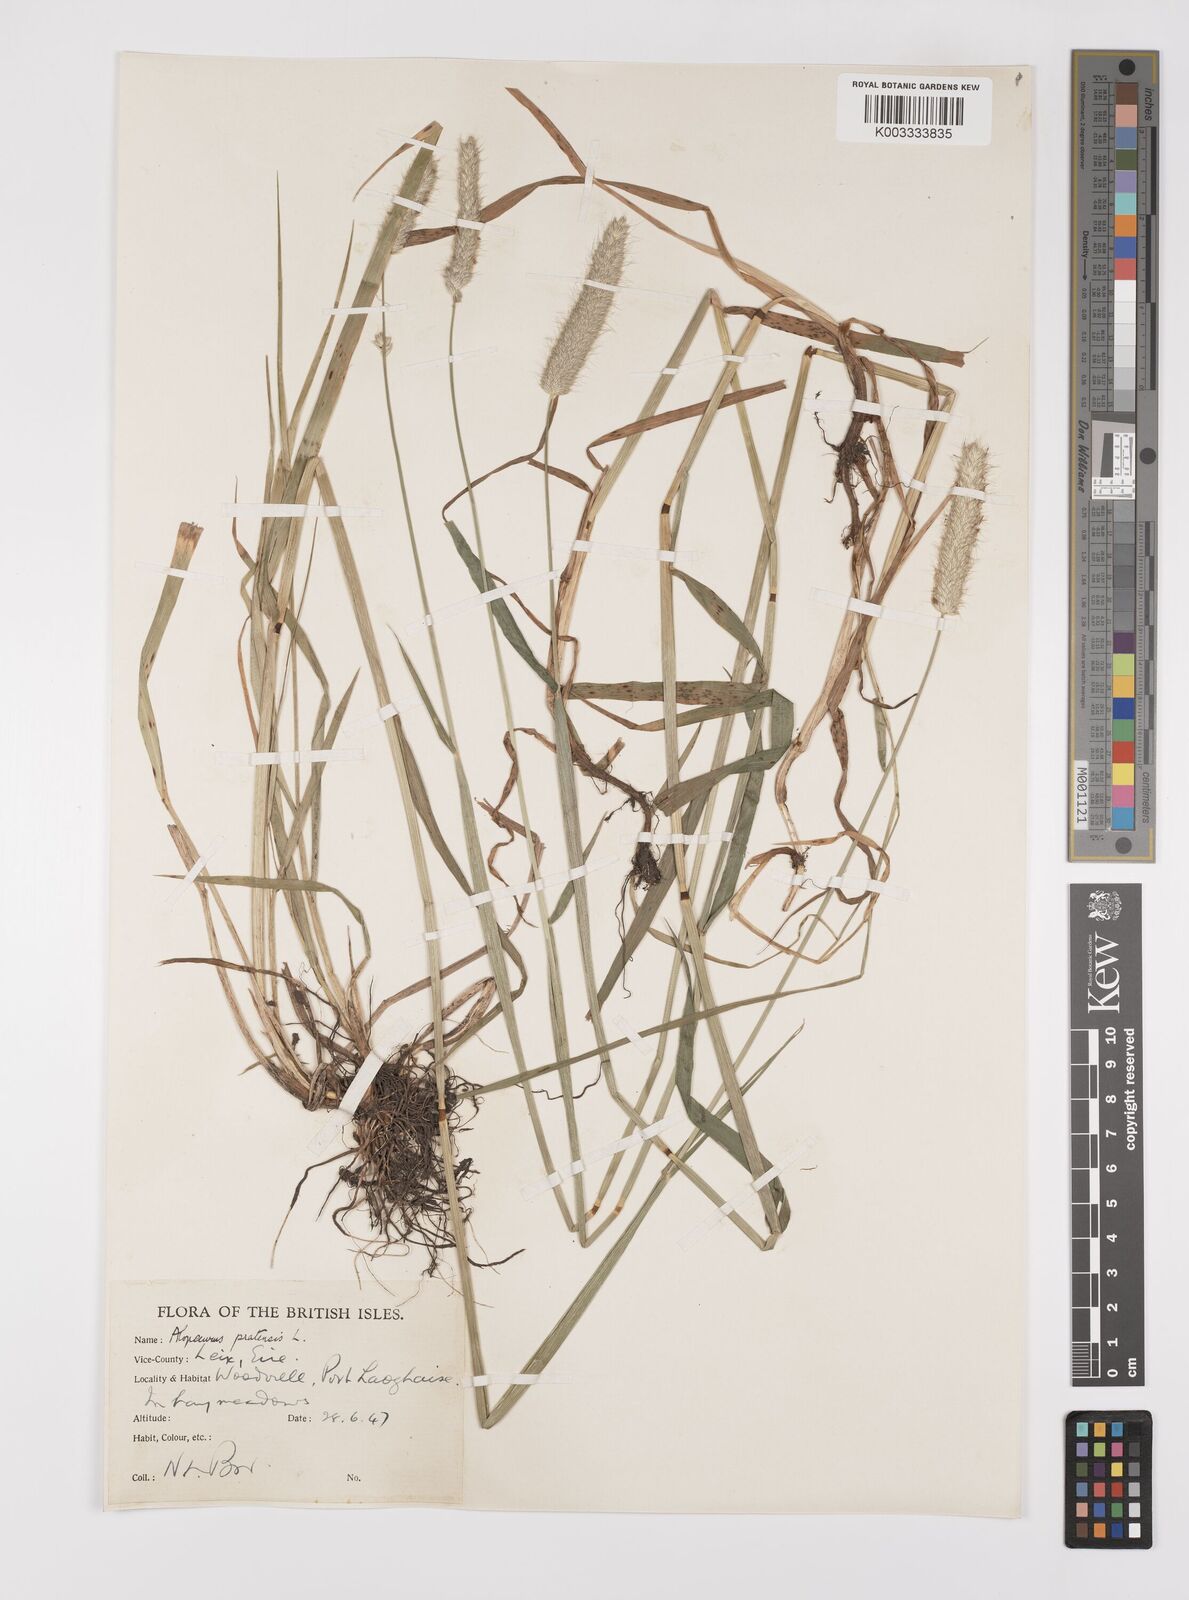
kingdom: Plantae
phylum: Tracheophyta
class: Liliopsida
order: Poales
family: Poaceae
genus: Alopecurus
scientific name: Alopecurus pratensis
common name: Meadow foxtail
